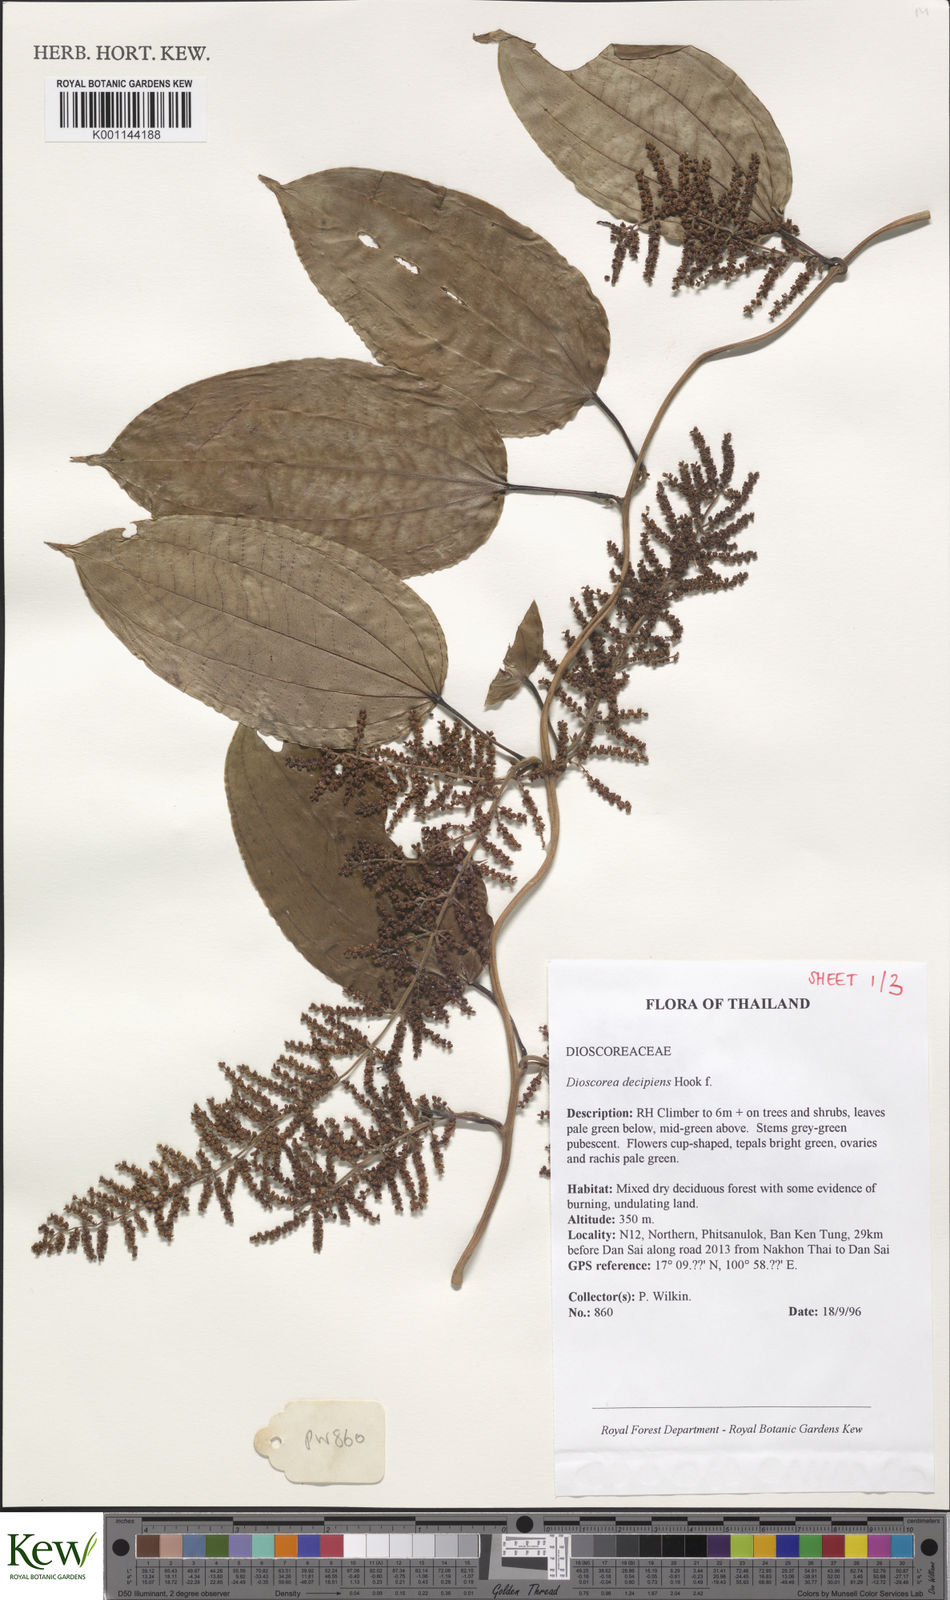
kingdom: Plantae
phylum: Tracheophyta
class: Liliopsida
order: Dioscoreales
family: Dioscoreaceae
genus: Dioscorea
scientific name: Dioscorea decipiens
